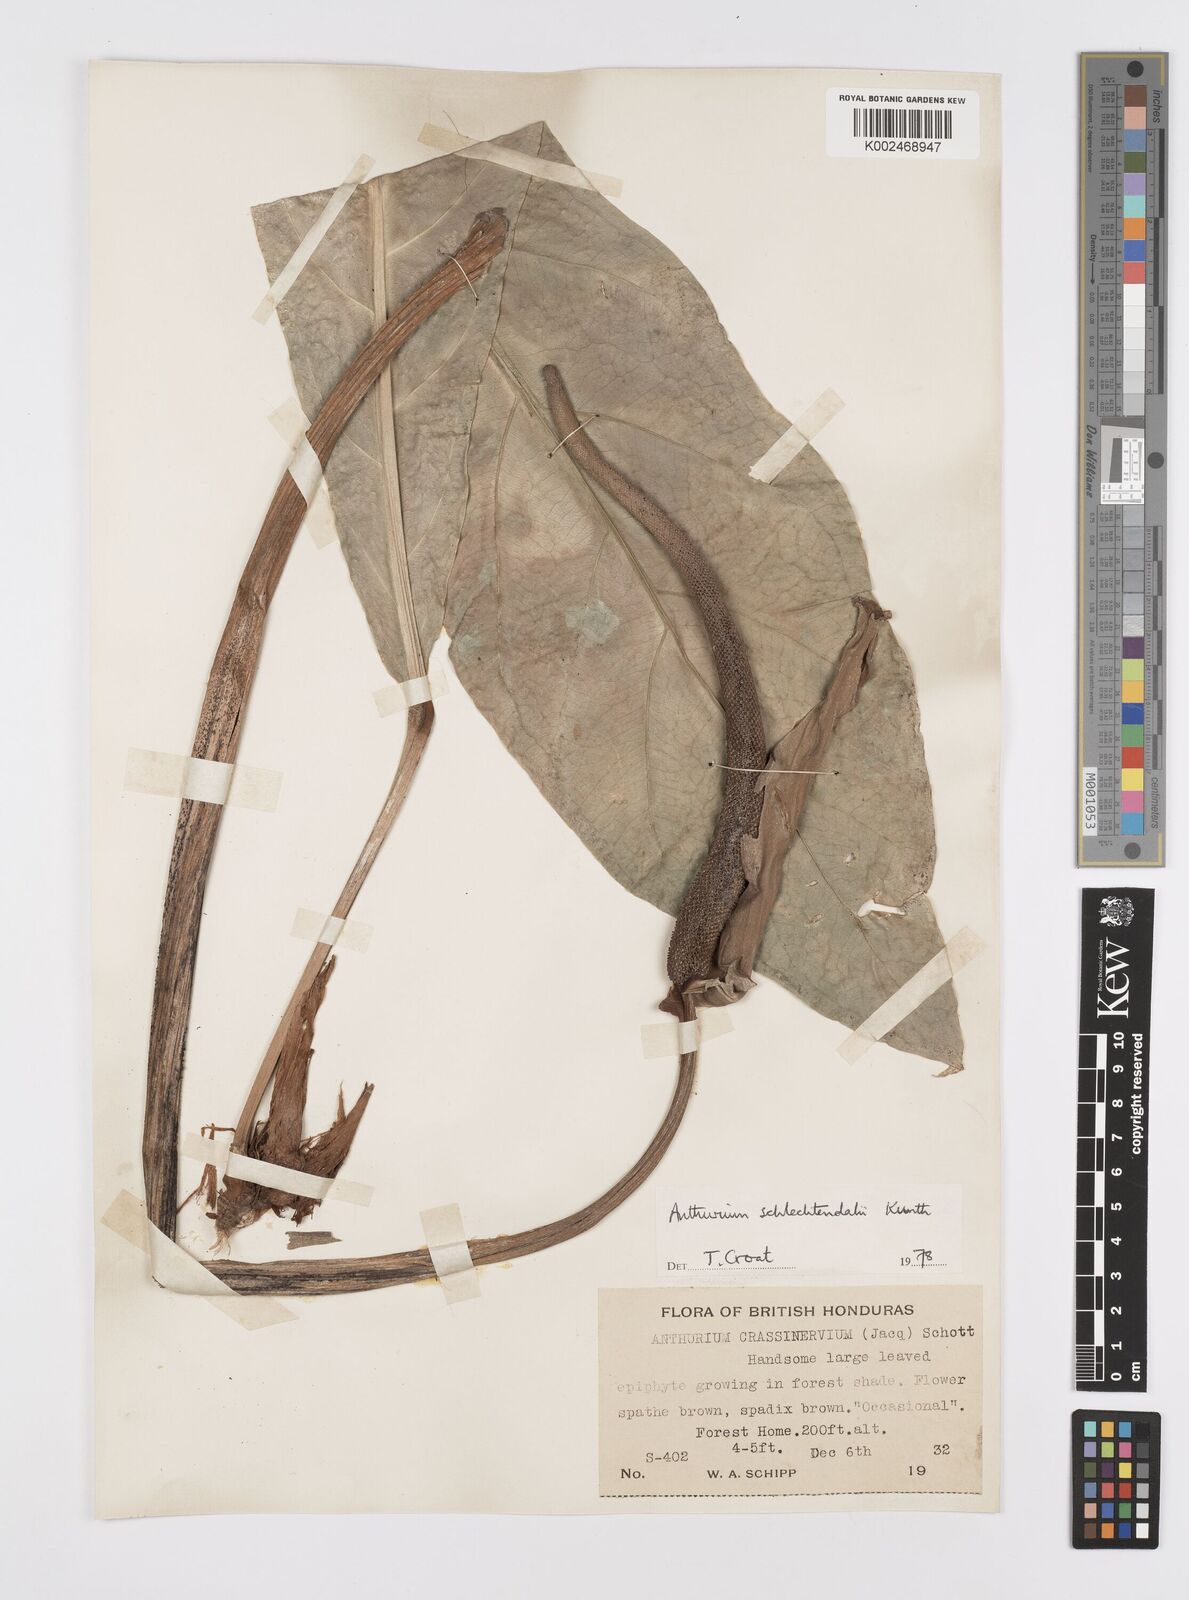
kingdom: Plantae
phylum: Tracheophyta
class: Liliopsida
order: Alismatales
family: Araceae
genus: Anthurium
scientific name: Anthurium schlechtendalii
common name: Laceleaf
